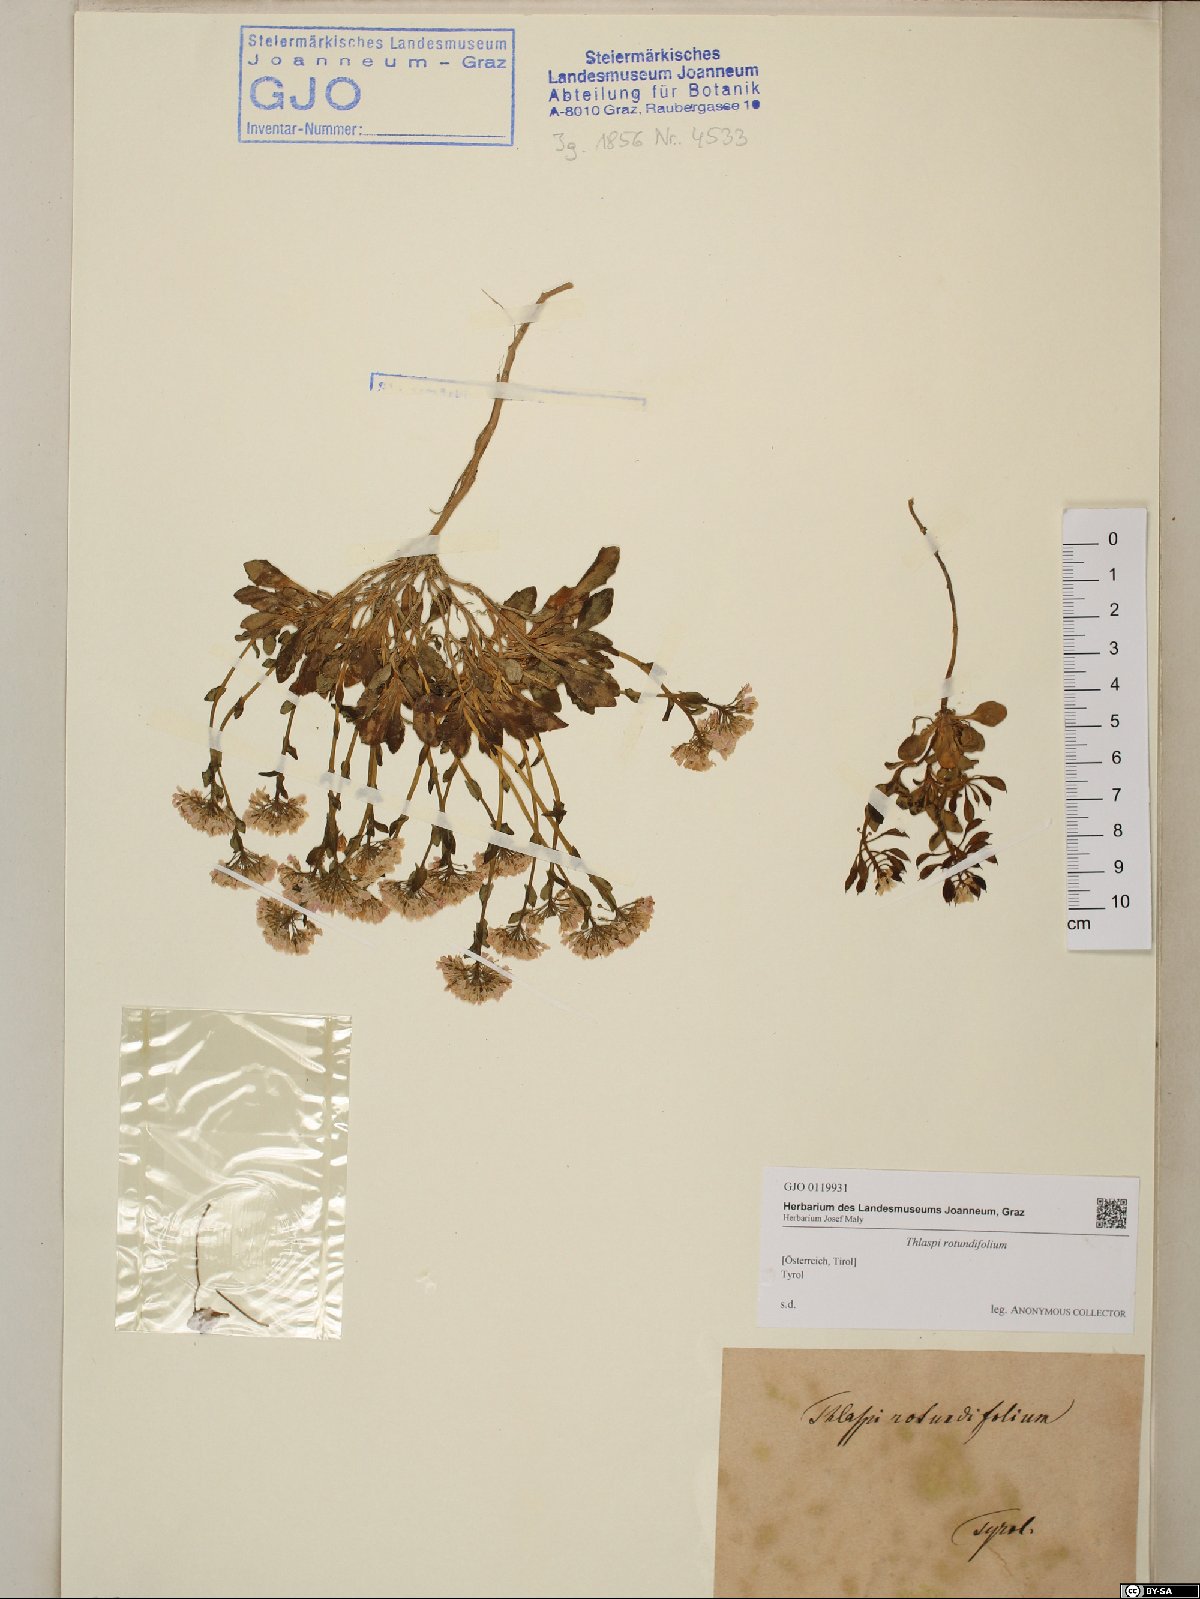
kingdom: Plantae
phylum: Tracheophyta
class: Magnoliopsida
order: Brassicales
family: Brassicaceae
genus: Noccaea
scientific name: Noccaea rotundifolia
